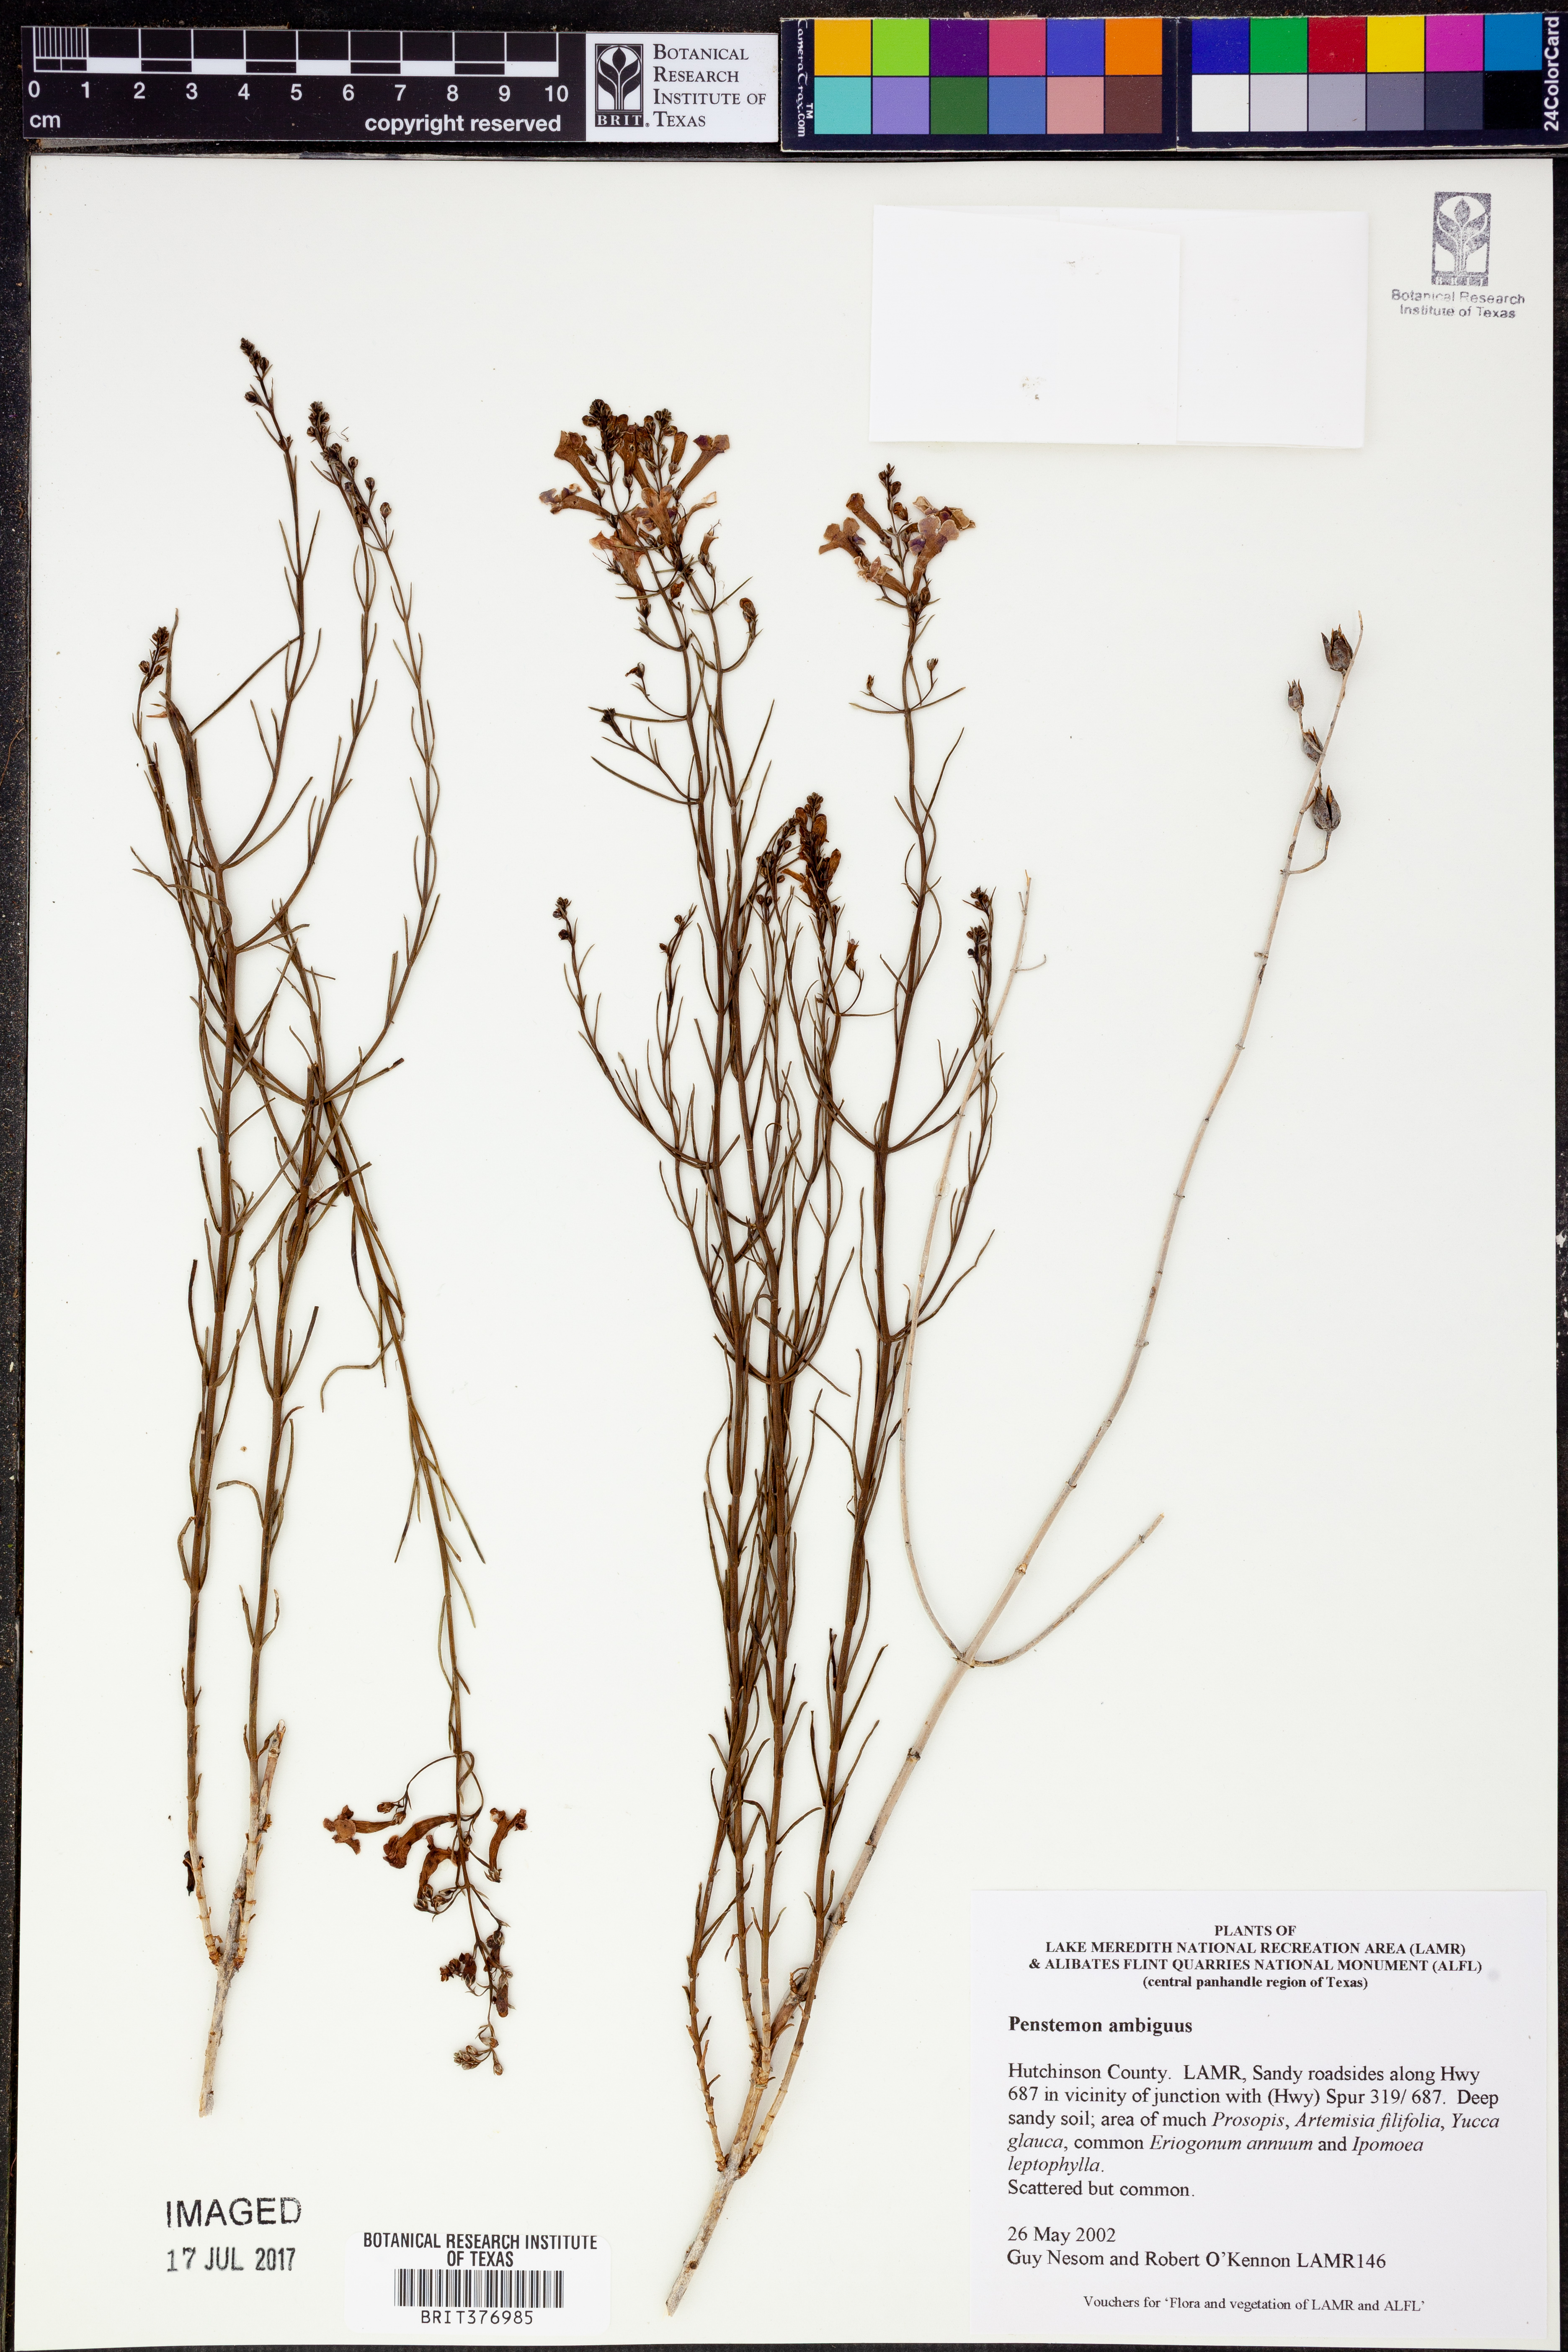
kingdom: Plantae
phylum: Tracheophyta
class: Magnoliopsida
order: Lamiales
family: Plantaginaceae
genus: Penstemon
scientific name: Penstemon ambiguus
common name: Bush penstemon
